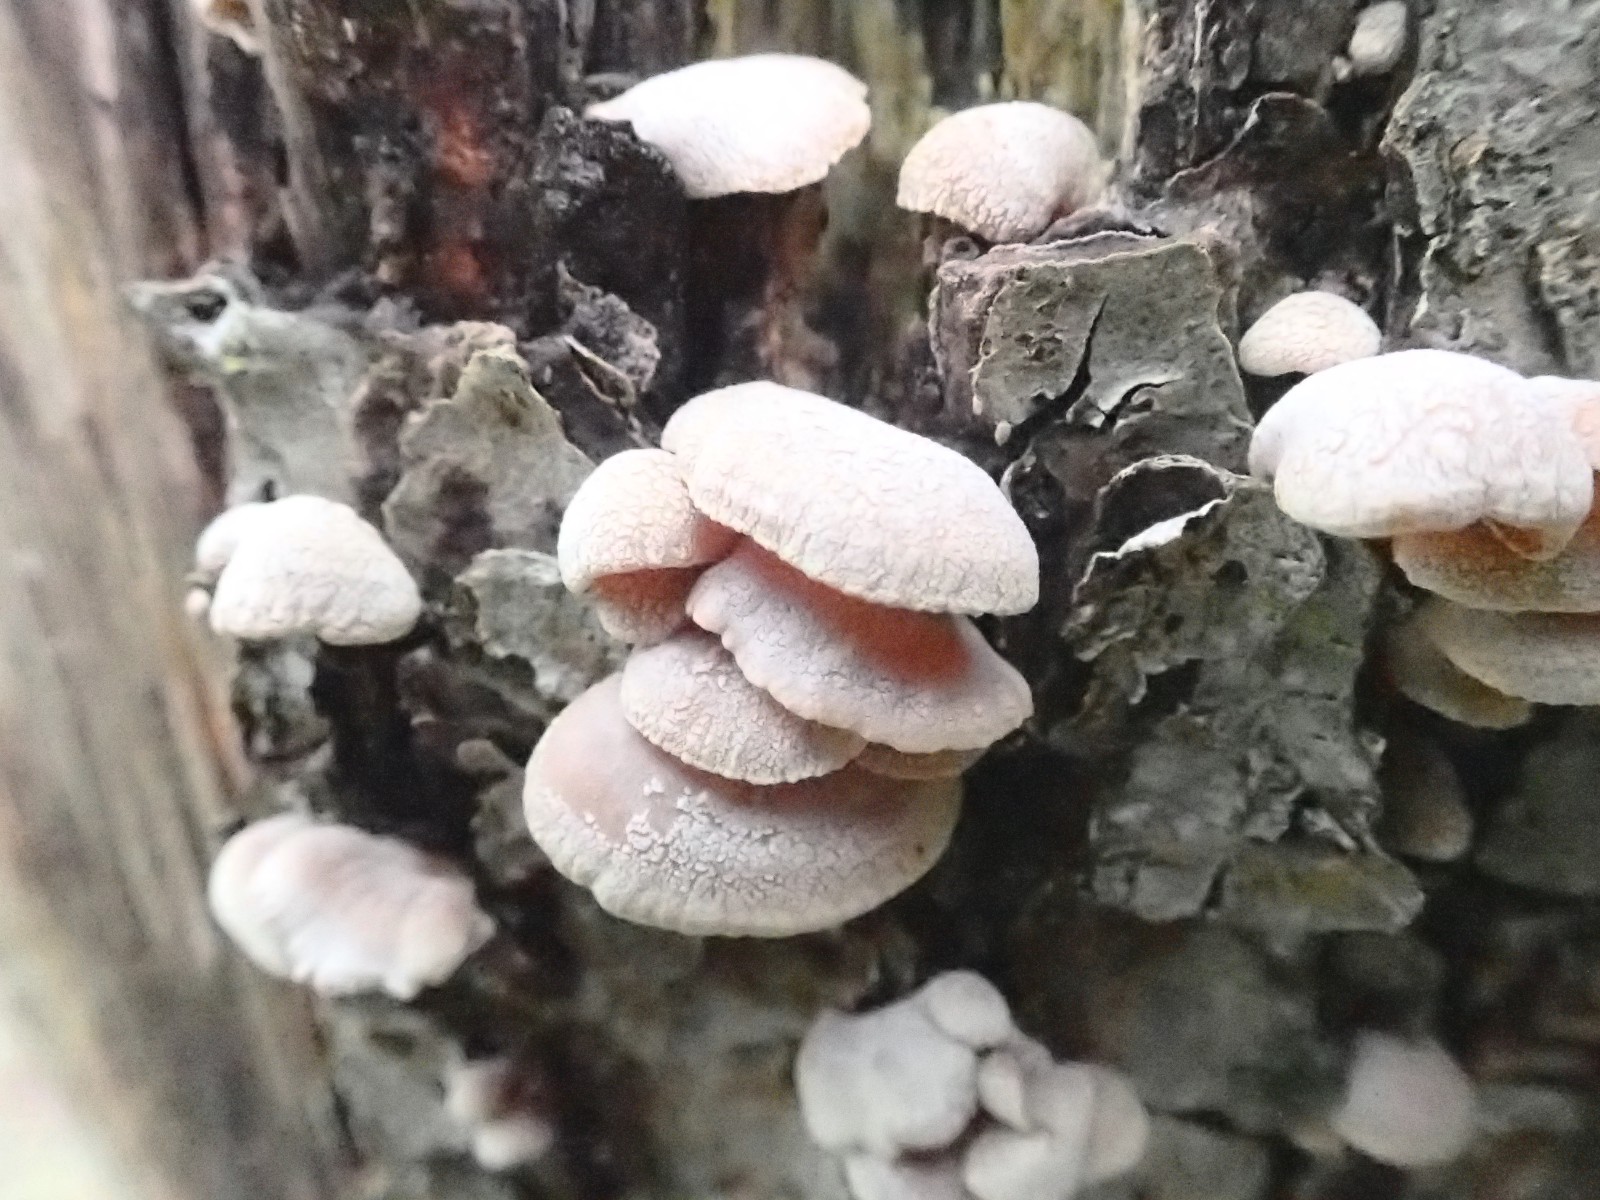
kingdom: Fungi
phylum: Basidiomycota
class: Agaricomycetes
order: Agaricales
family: Mycenaceae
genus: Panellus
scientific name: Panellus stipticus
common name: kliddet epaulethat
